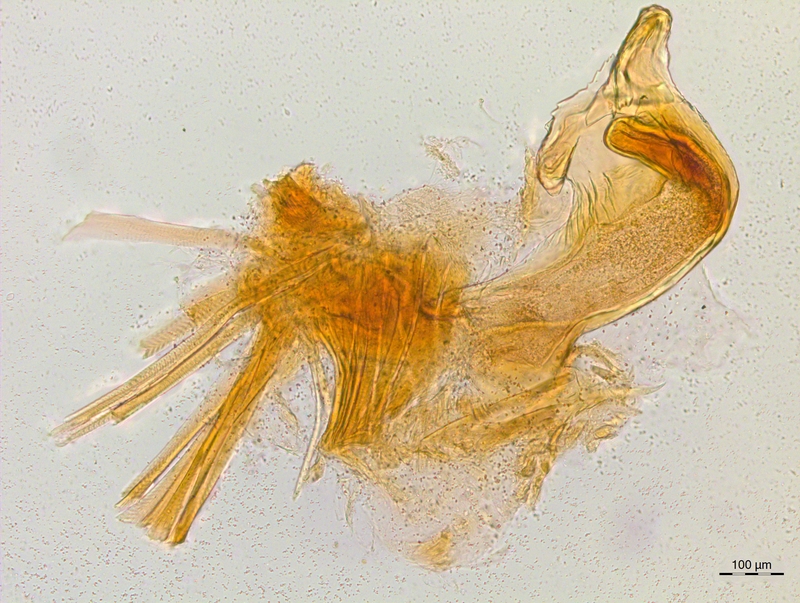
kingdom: Animalia
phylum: Arthropoda
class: Diplopoda
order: Chordeumatida
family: Craspedosomatidae
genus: Craspedosoma
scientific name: Craspedosoma transsilvanicum
